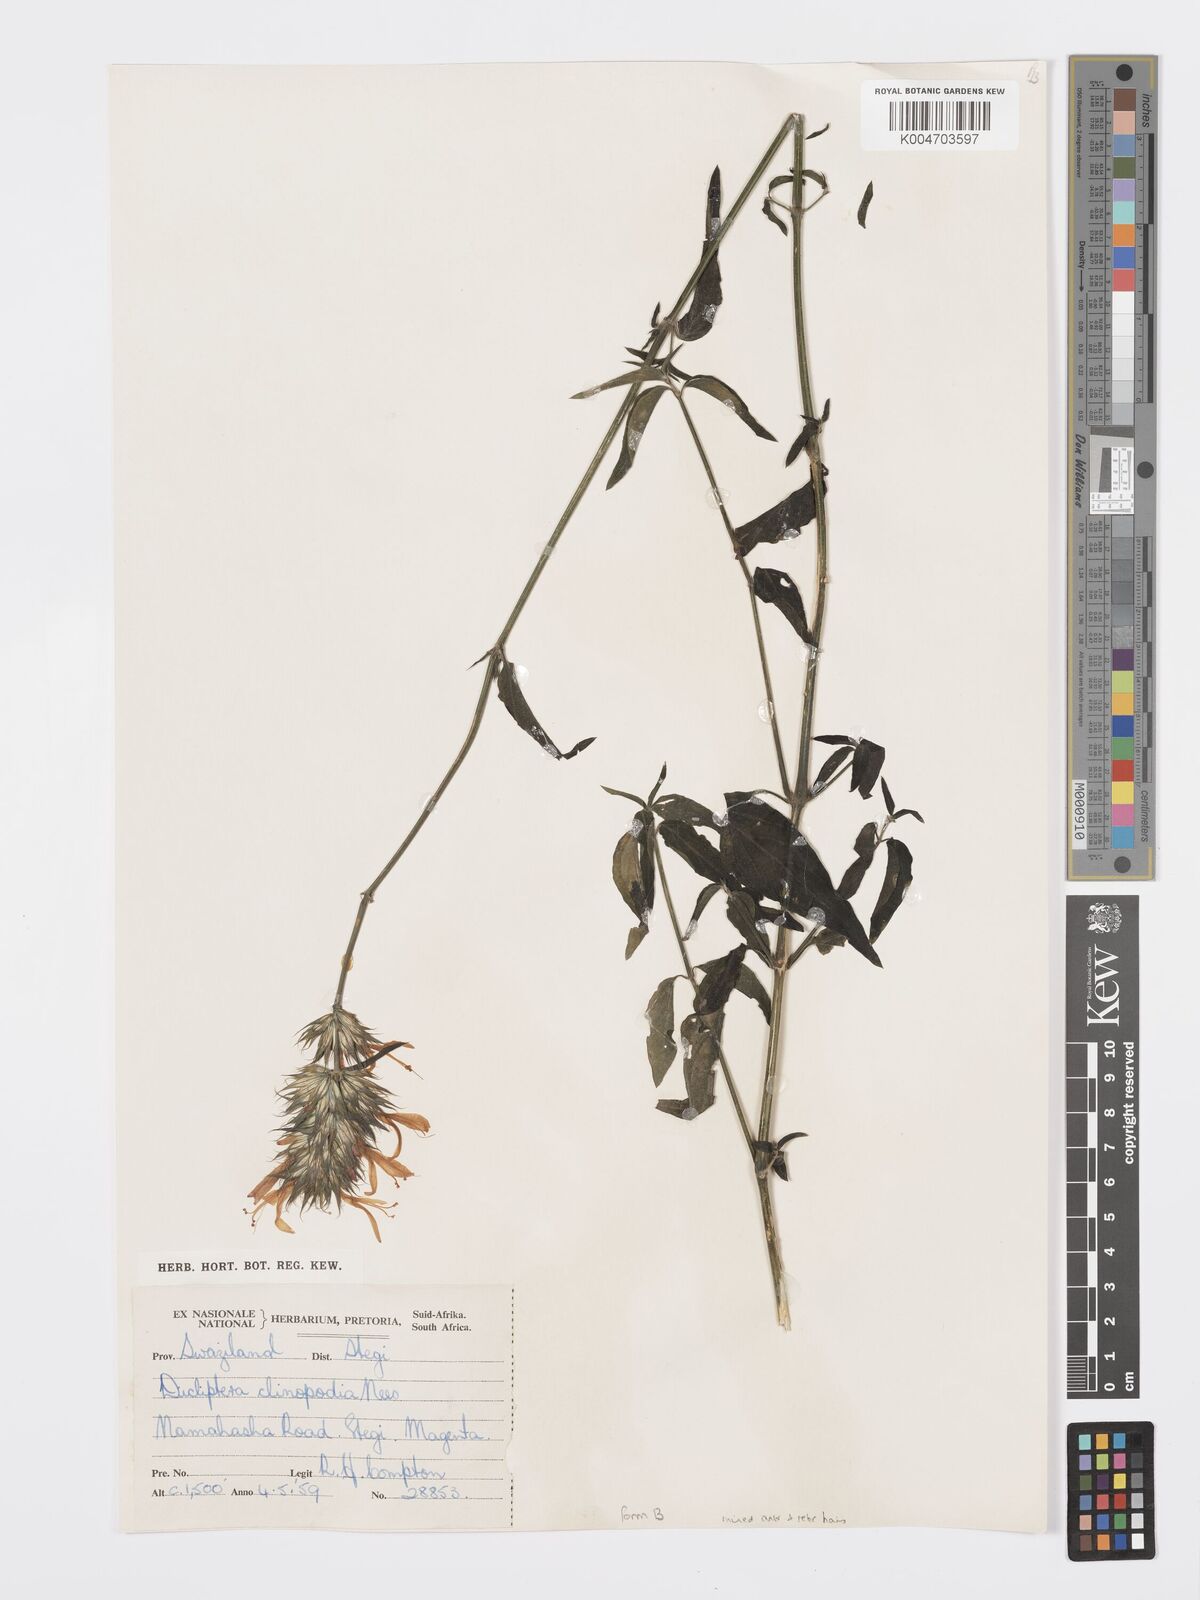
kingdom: Plantae
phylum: Tracheophyta
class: Magnoliopsida
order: Lamiales
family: Acanthaceae
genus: Dicliptera
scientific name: Dicliptera clinopodia
